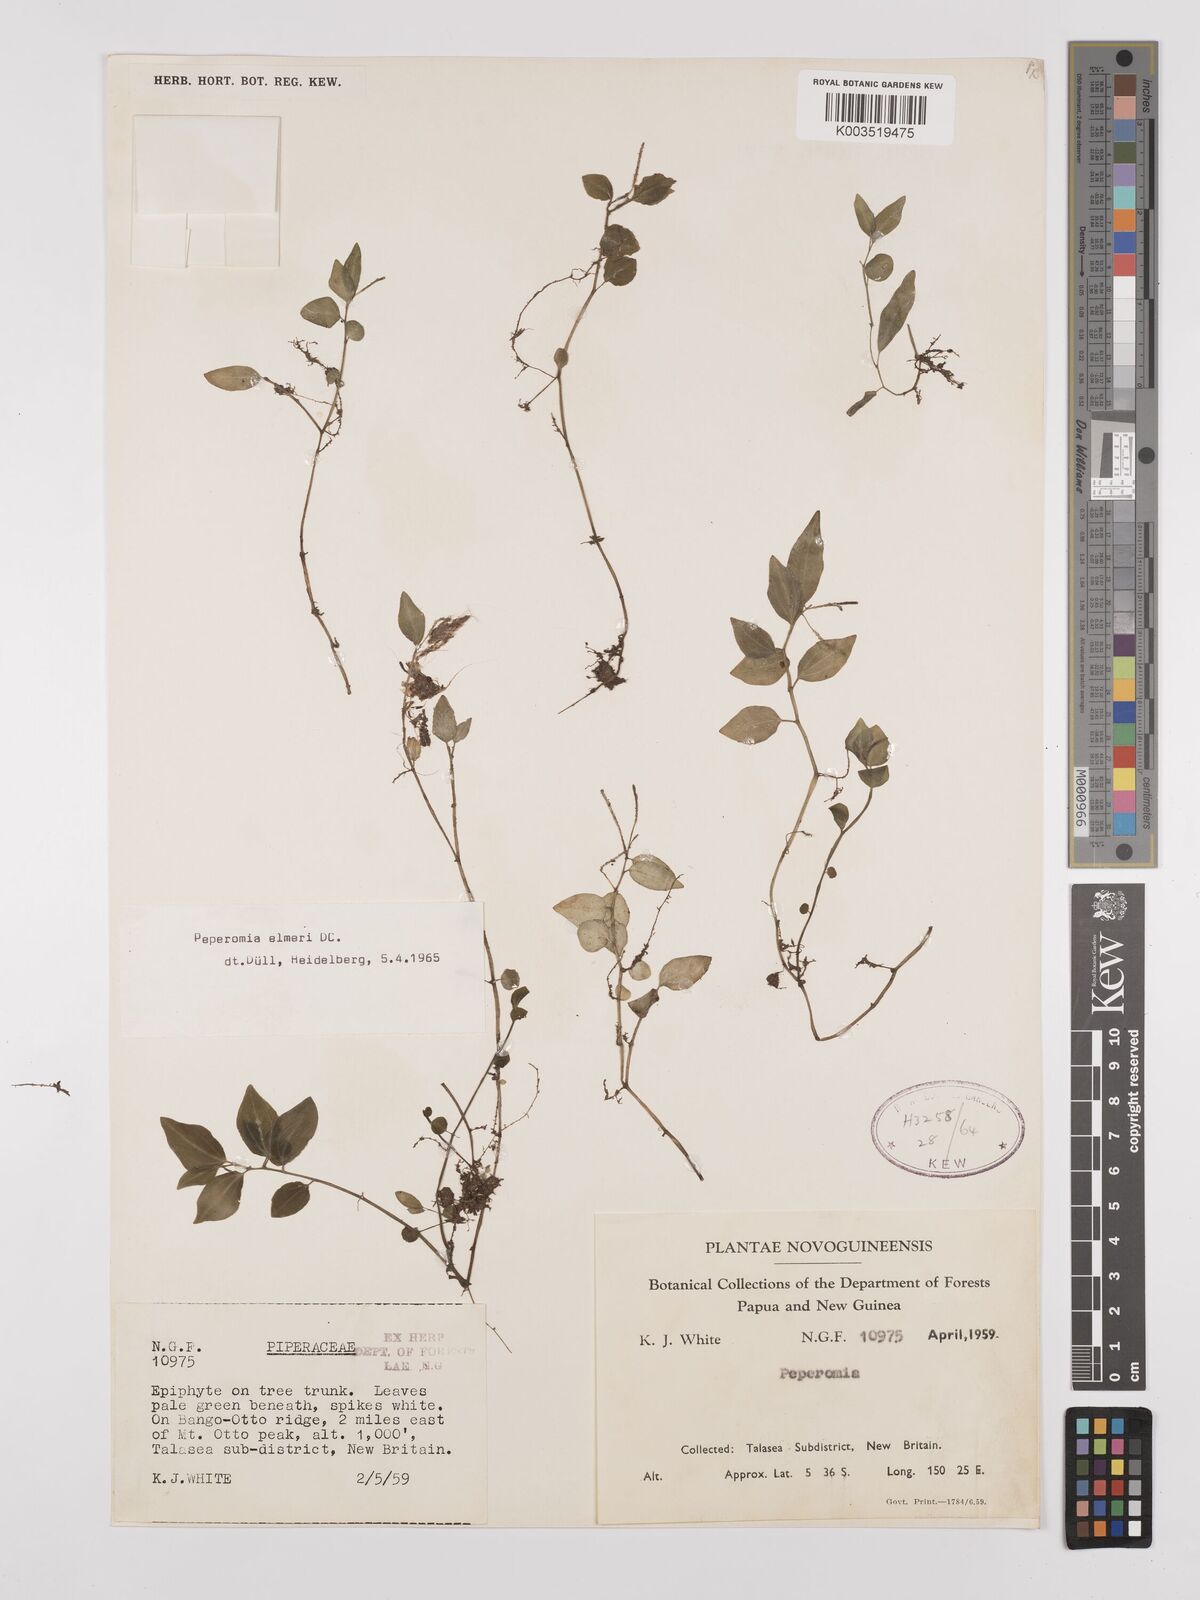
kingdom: Plantae
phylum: Tracheophyta
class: Magnoliopsida
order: Piperales
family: Piperaceae
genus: Peperomia
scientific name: Peperomia elmeri
